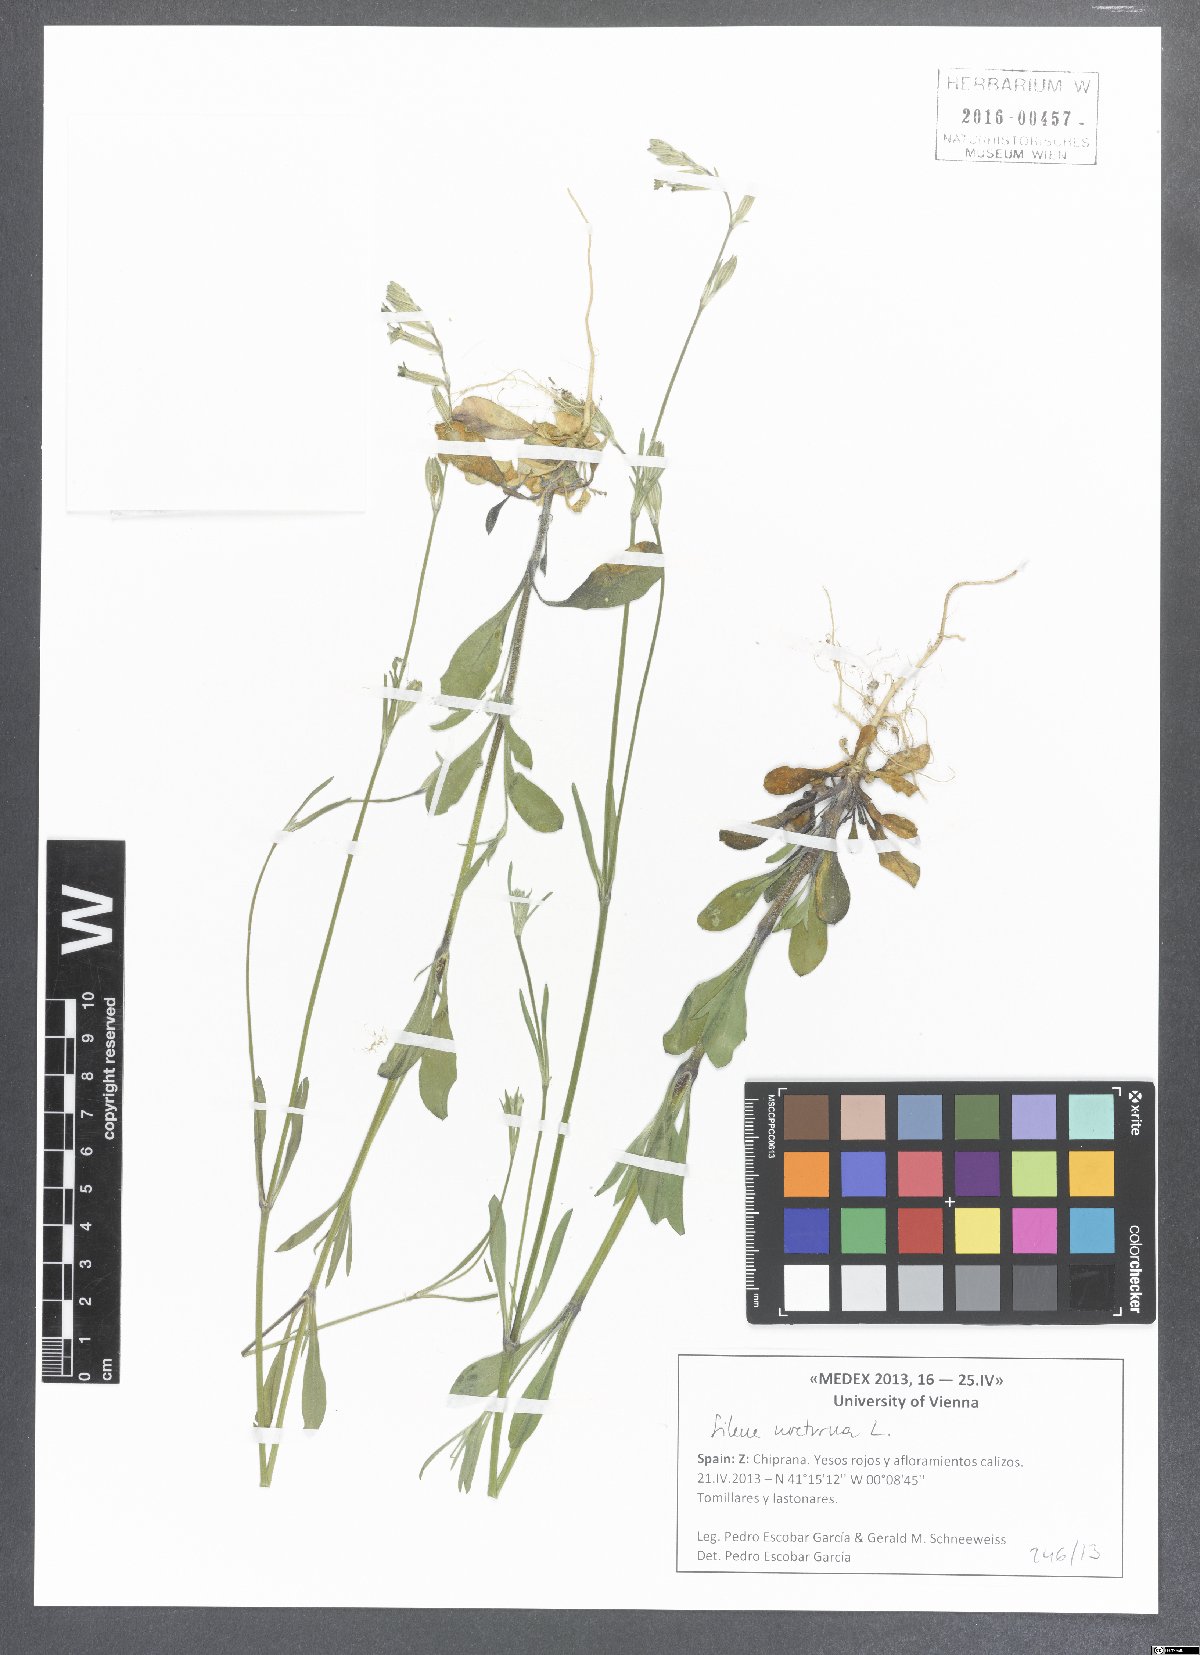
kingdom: Plantae
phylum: Tracheophyta
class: Magnoliopsida
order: Caryophyllales
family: Caryophyllaceae
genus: Silene
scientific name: Silene nocturna
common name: Mediterranean catchfly
